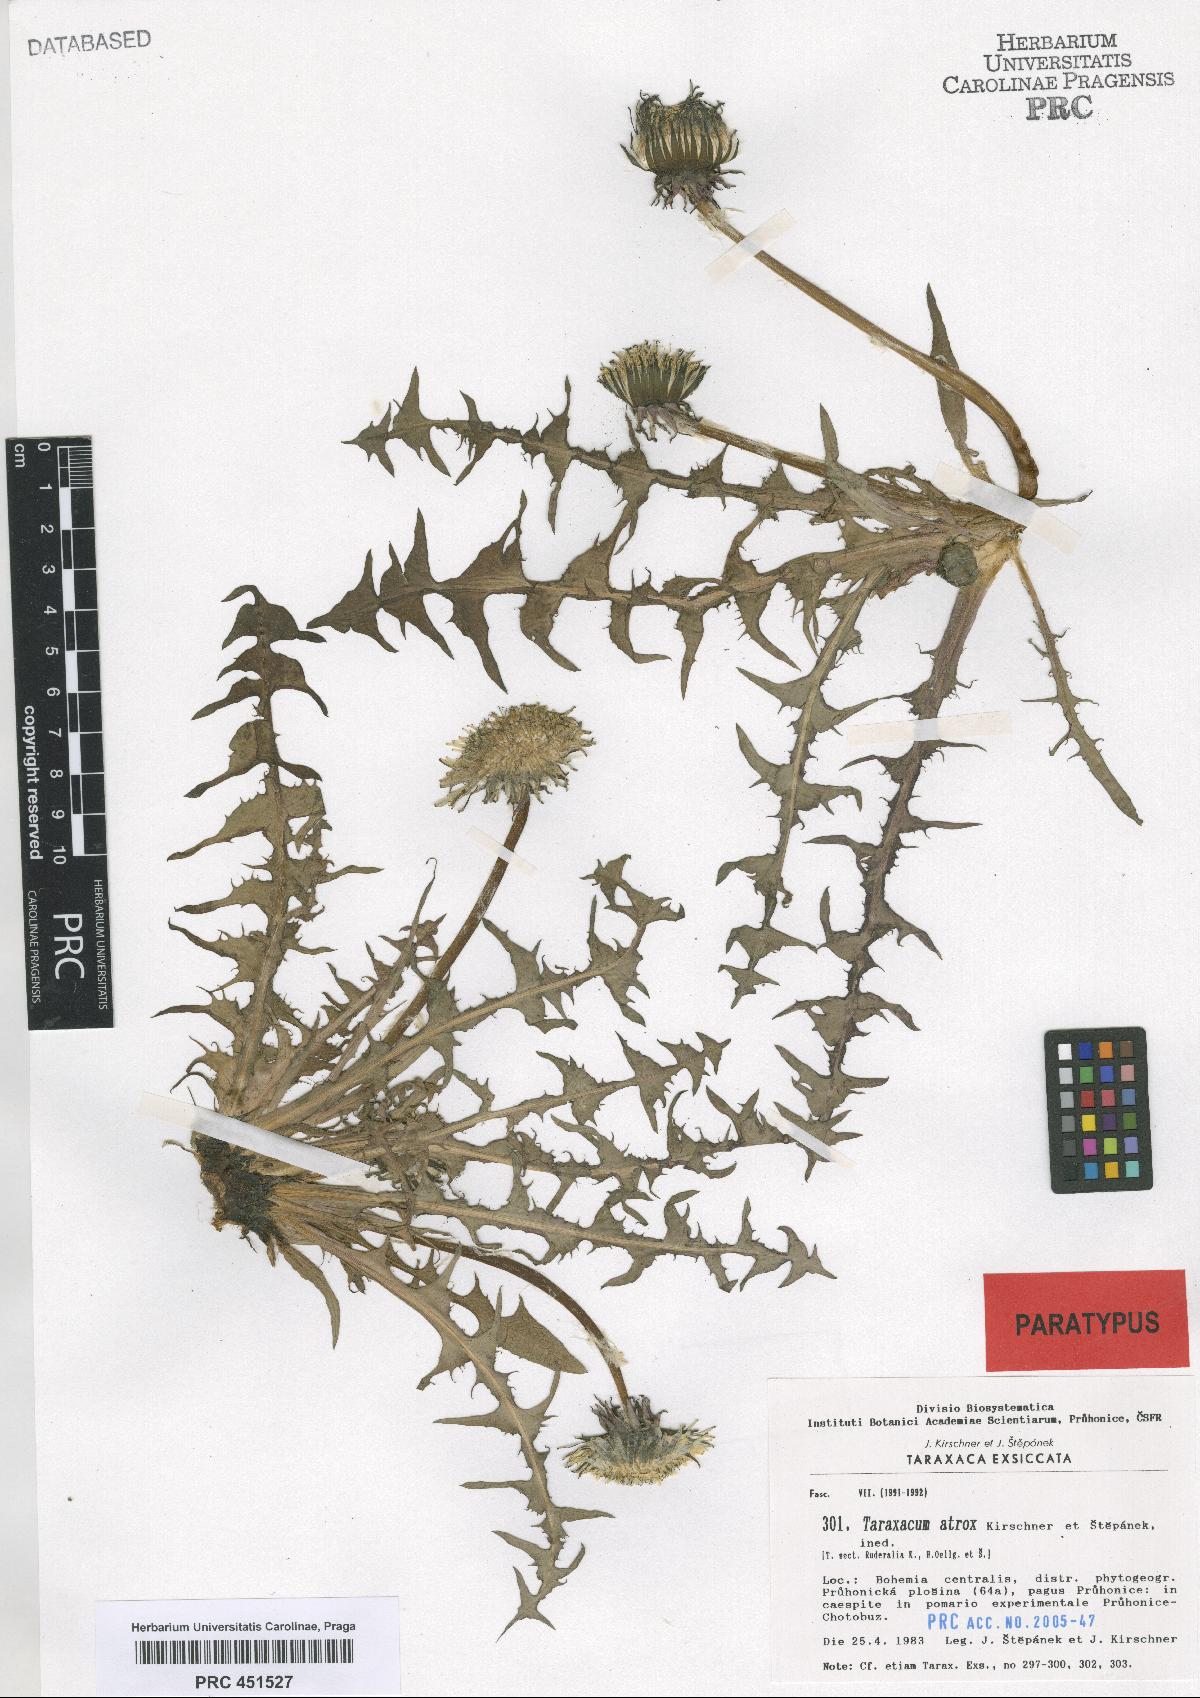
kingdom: Plantae
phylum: Tracheophyta
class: Magnoliopsida
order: Asterales
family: Asteraceae
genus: Taraxacum
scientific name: Taraxacum atrox
